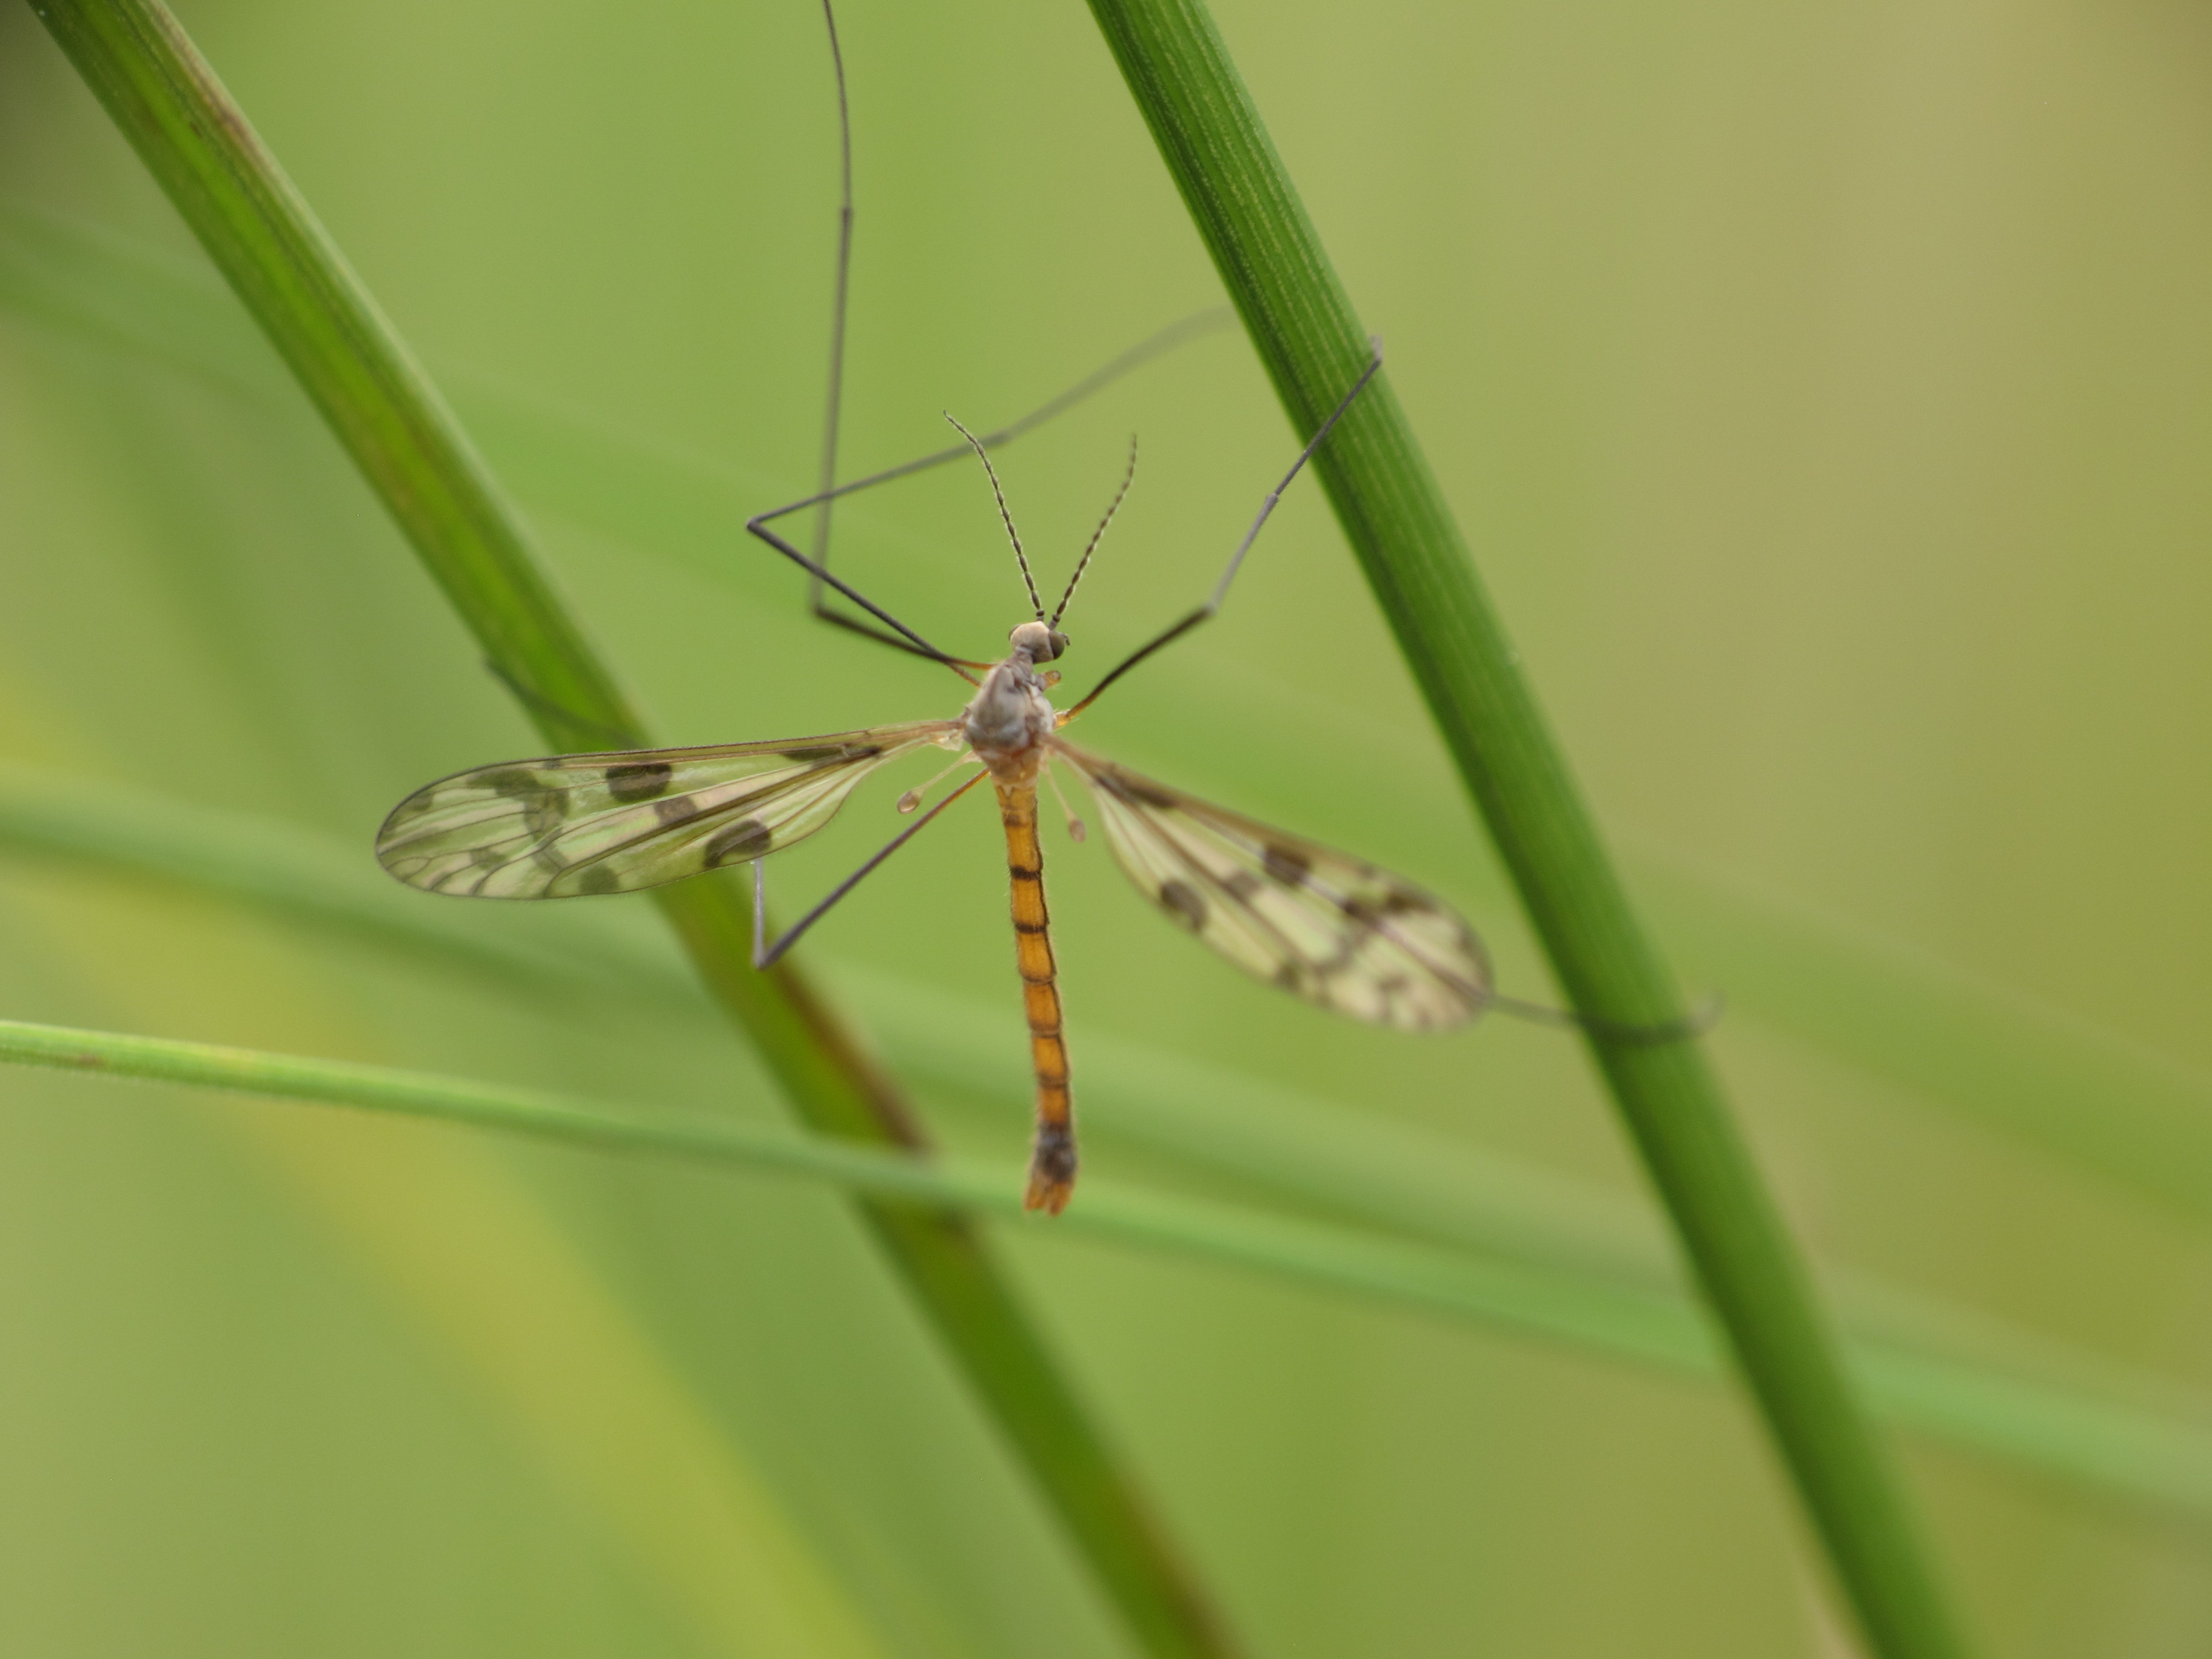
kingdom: Animalia
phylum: Arthropoda
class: Insecta
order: Diptera
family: Limoniidae
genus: Idioptera
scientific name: Idioptera pulchella
